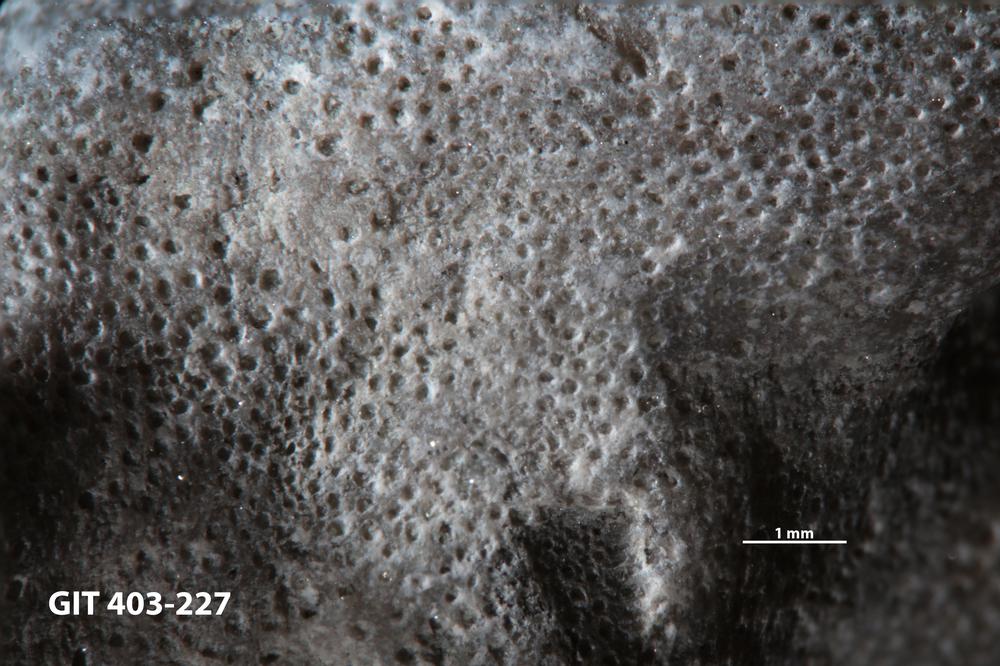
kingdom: Animalia
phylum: Bryozoa
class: Stenolaemata
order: Cystoporida
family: Fistuliporidae
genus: Fistulipora
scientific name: Fistulipora przhidolensis
